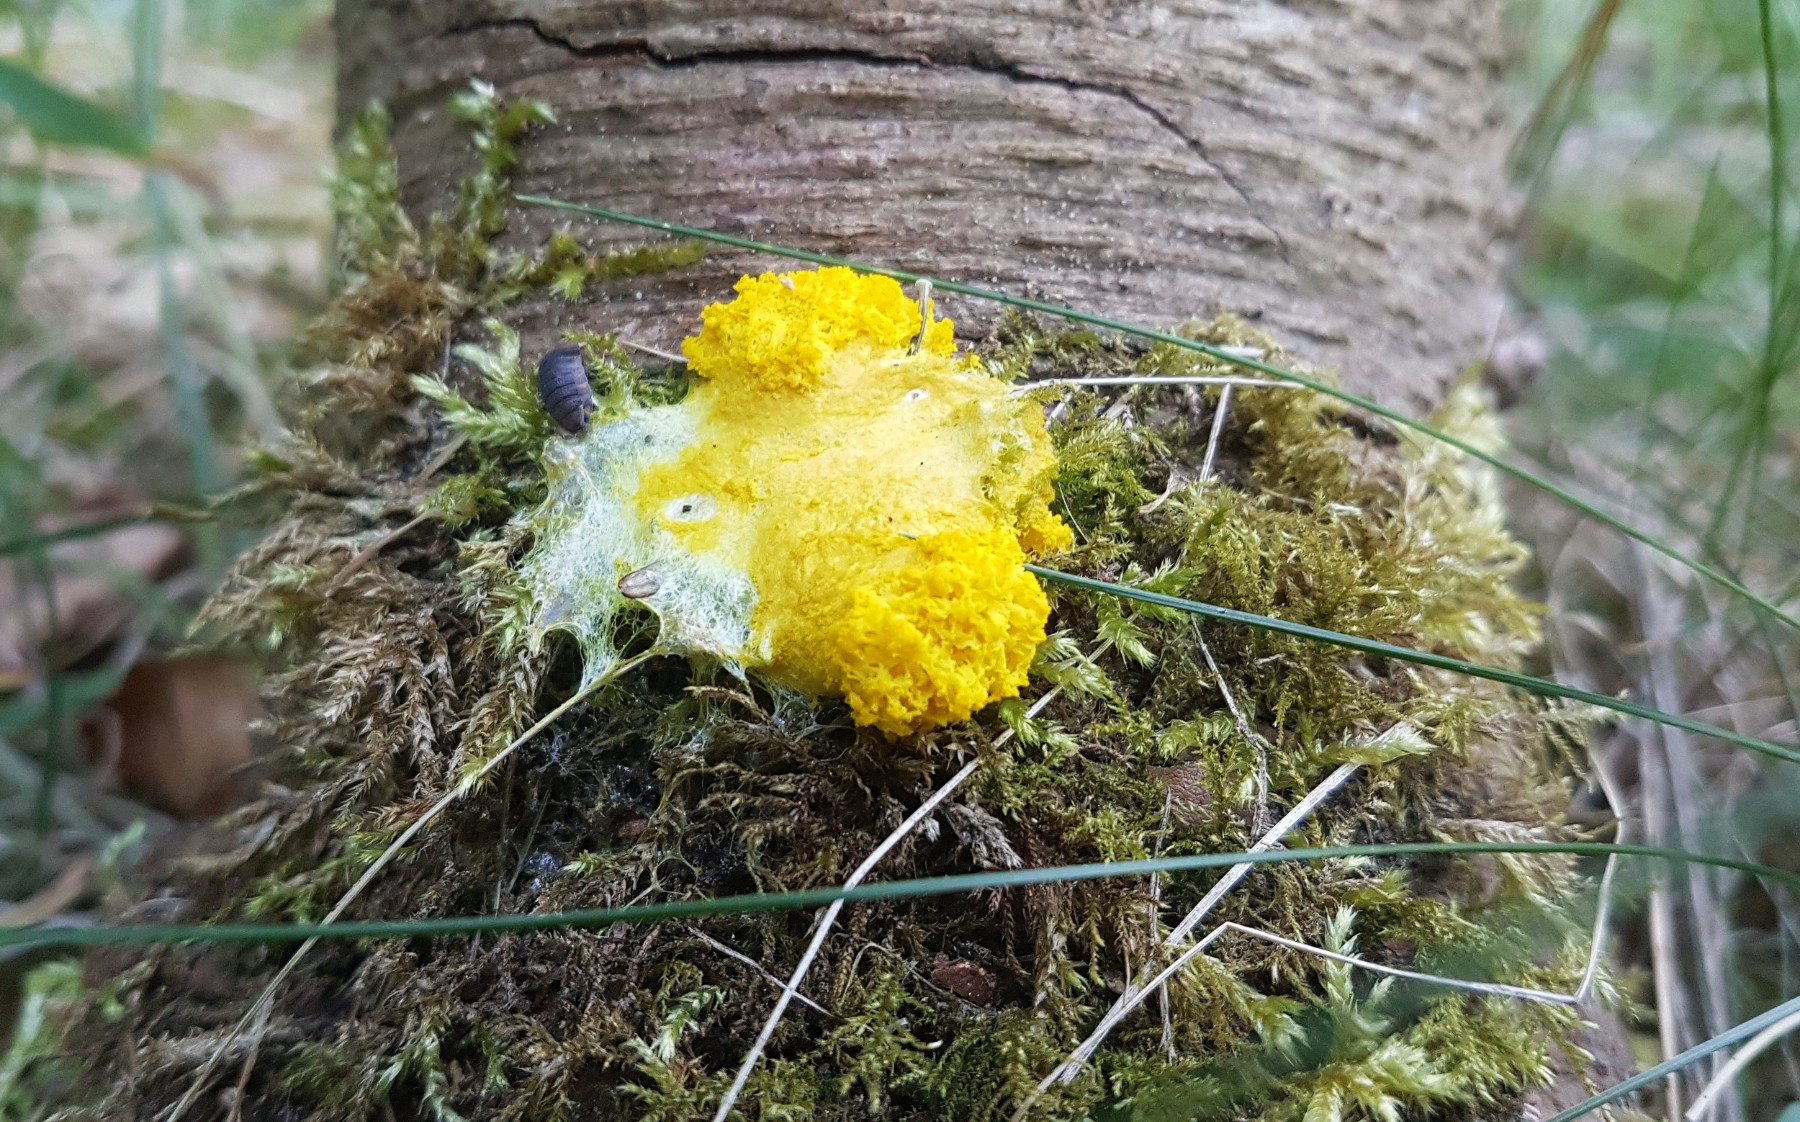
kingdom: Protozoa
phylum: Mycetozoa
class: Myxomycetes
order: Physarales
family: Physaraceae
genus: Fuligo
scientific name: Fuligo septica
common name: gul troldsmør
